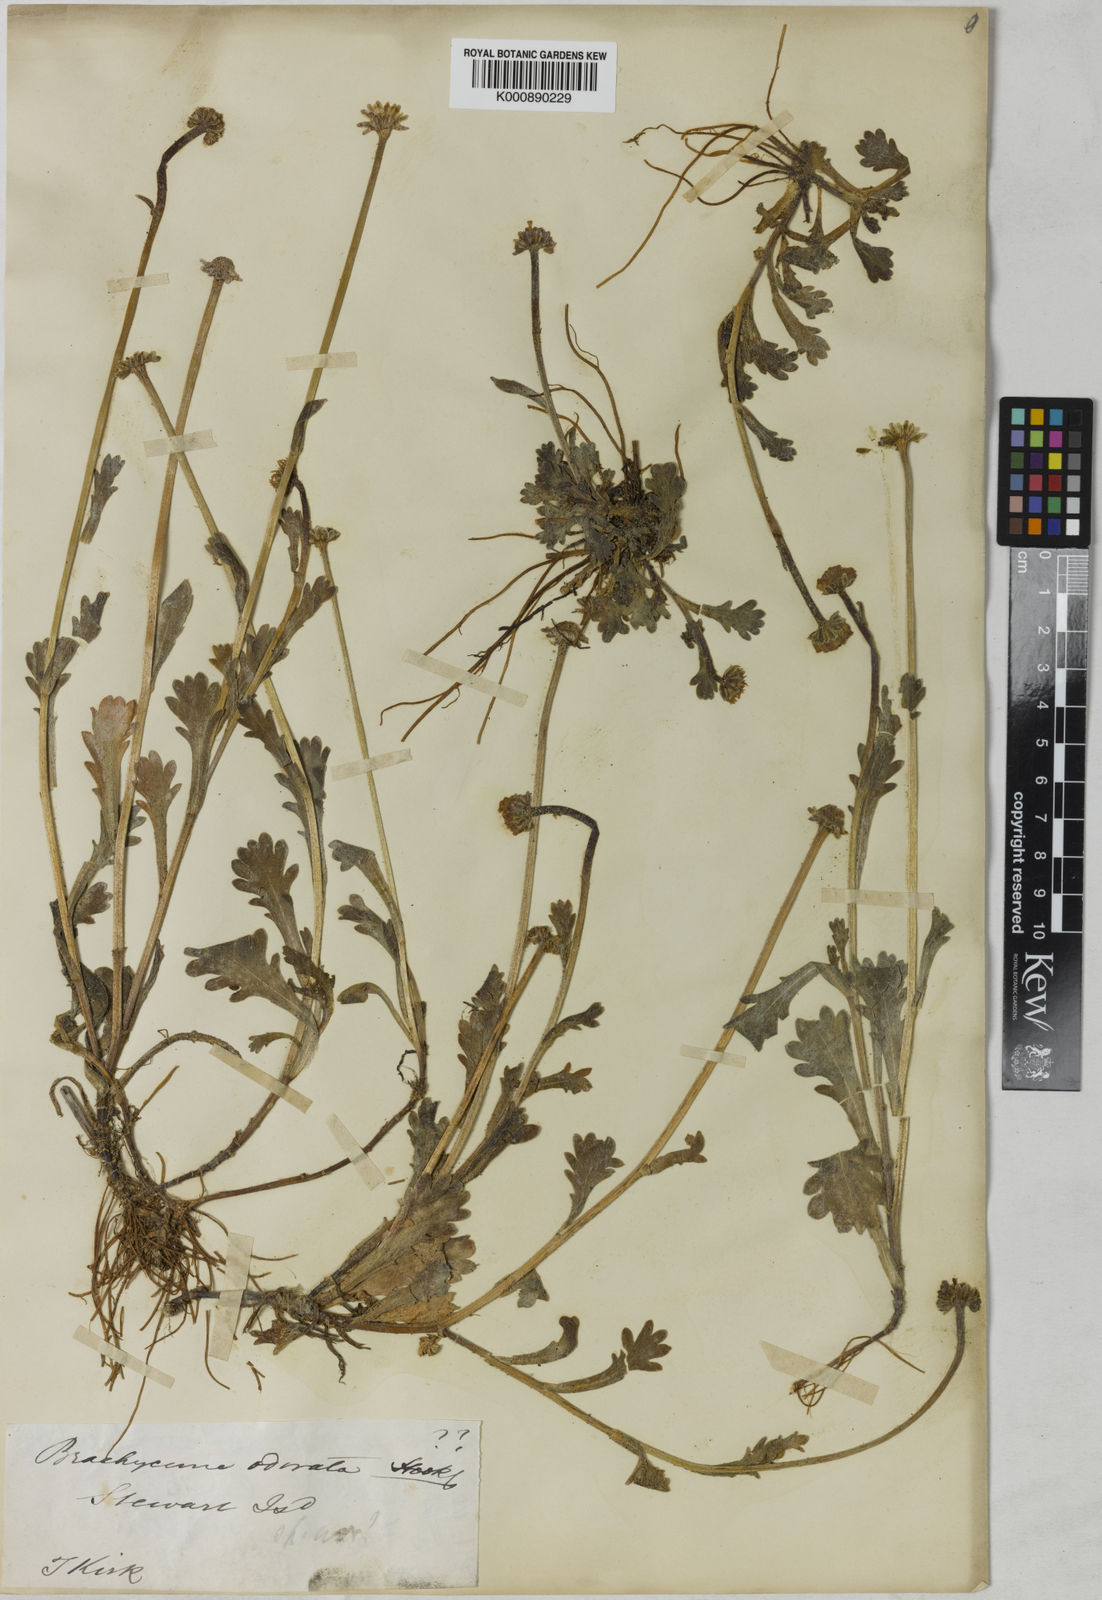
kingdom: Plantae
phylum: Tracheophyta
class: Magnoliopsida
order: Asterales
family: Asteraceae
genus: Brachyscome
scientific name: Brachyscome radicata
